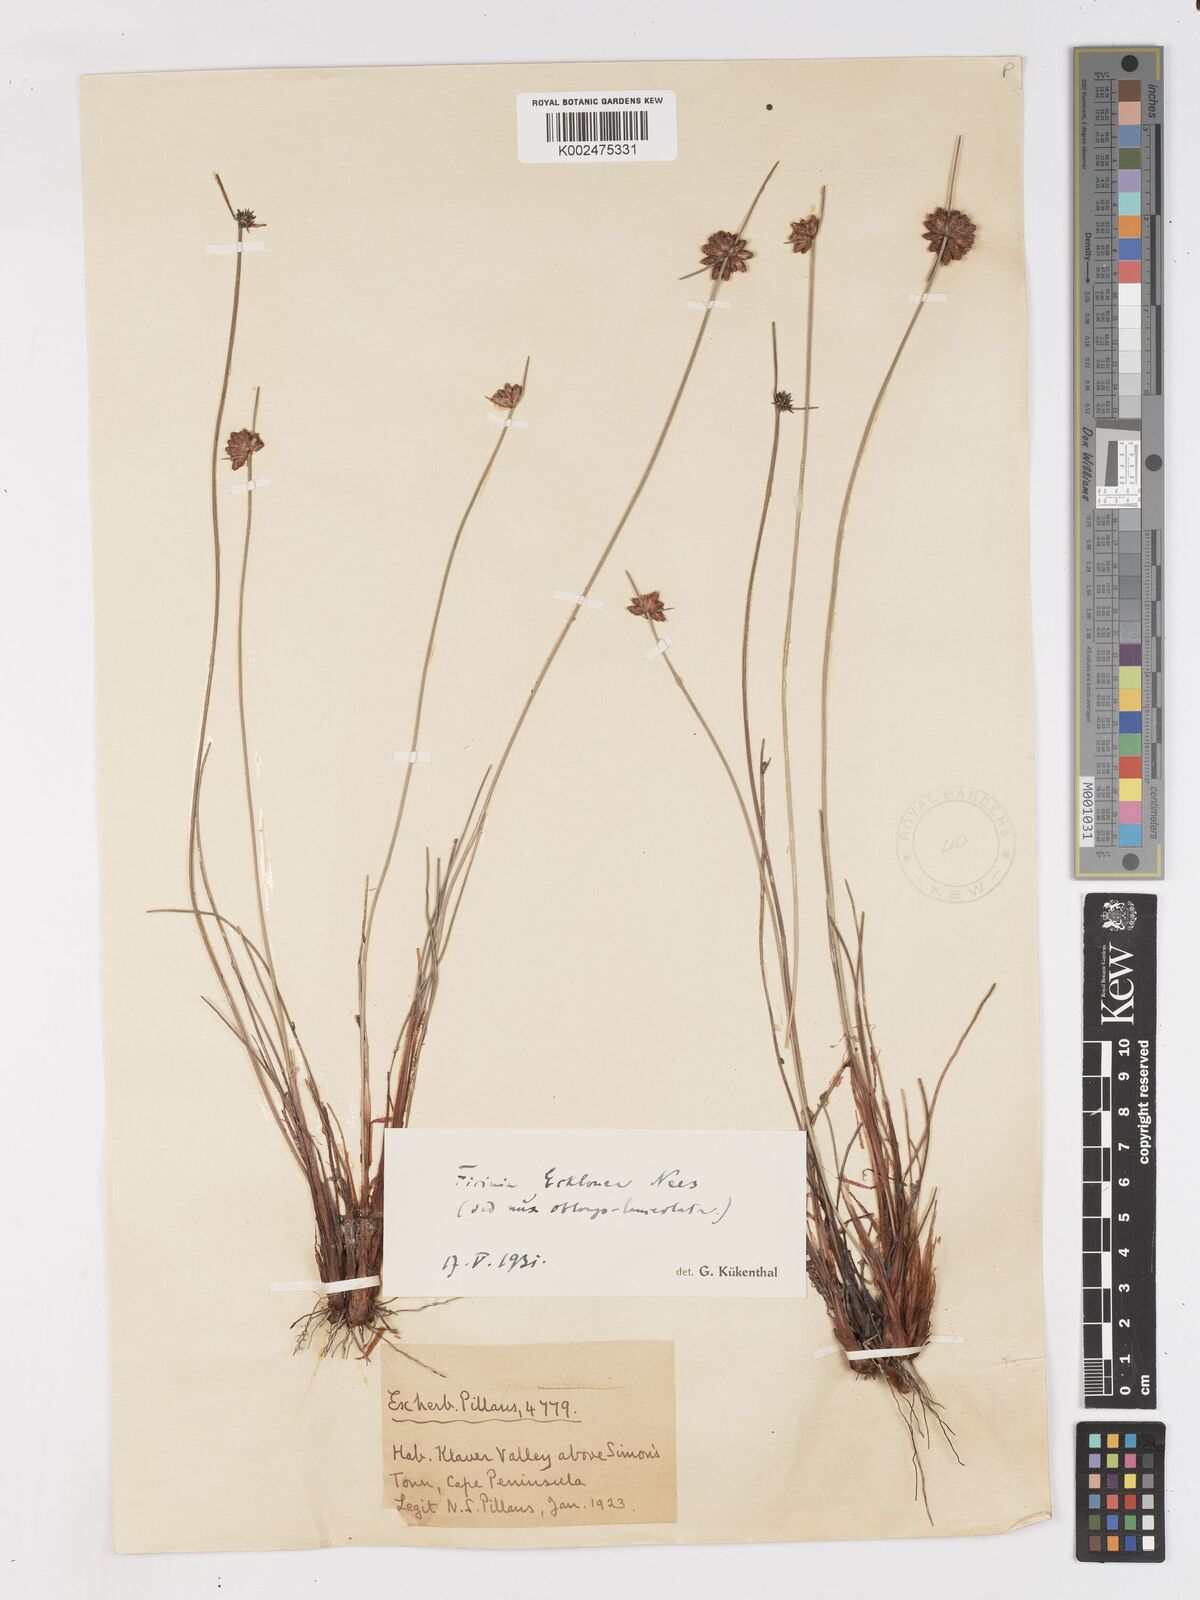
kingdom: Plantae
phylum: Tracheophyta
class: Liliopsida
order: Poales
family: Cyperaceae
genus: Ficinia
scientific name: Ficinia ecklonea
